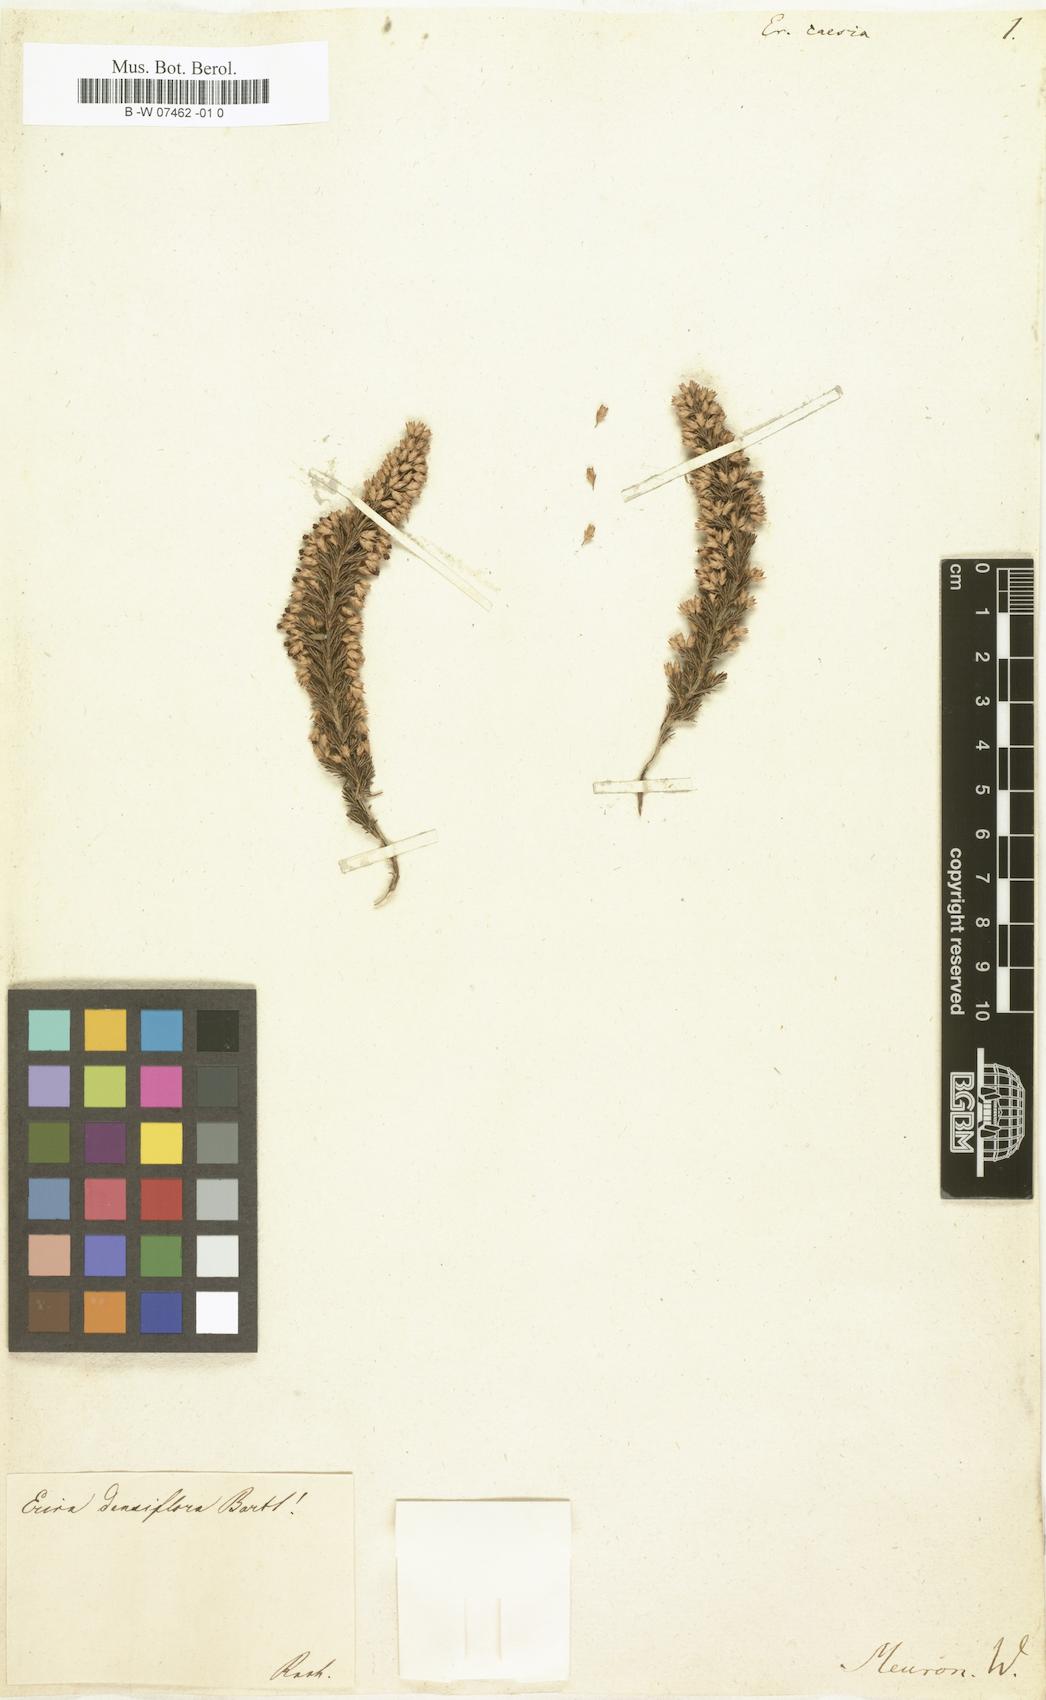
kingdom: Plantae
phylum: Tracheophyta
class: Magnoliopsida
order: Ericales
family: Ericaceae
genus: Erica
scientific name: Erica imbricata
